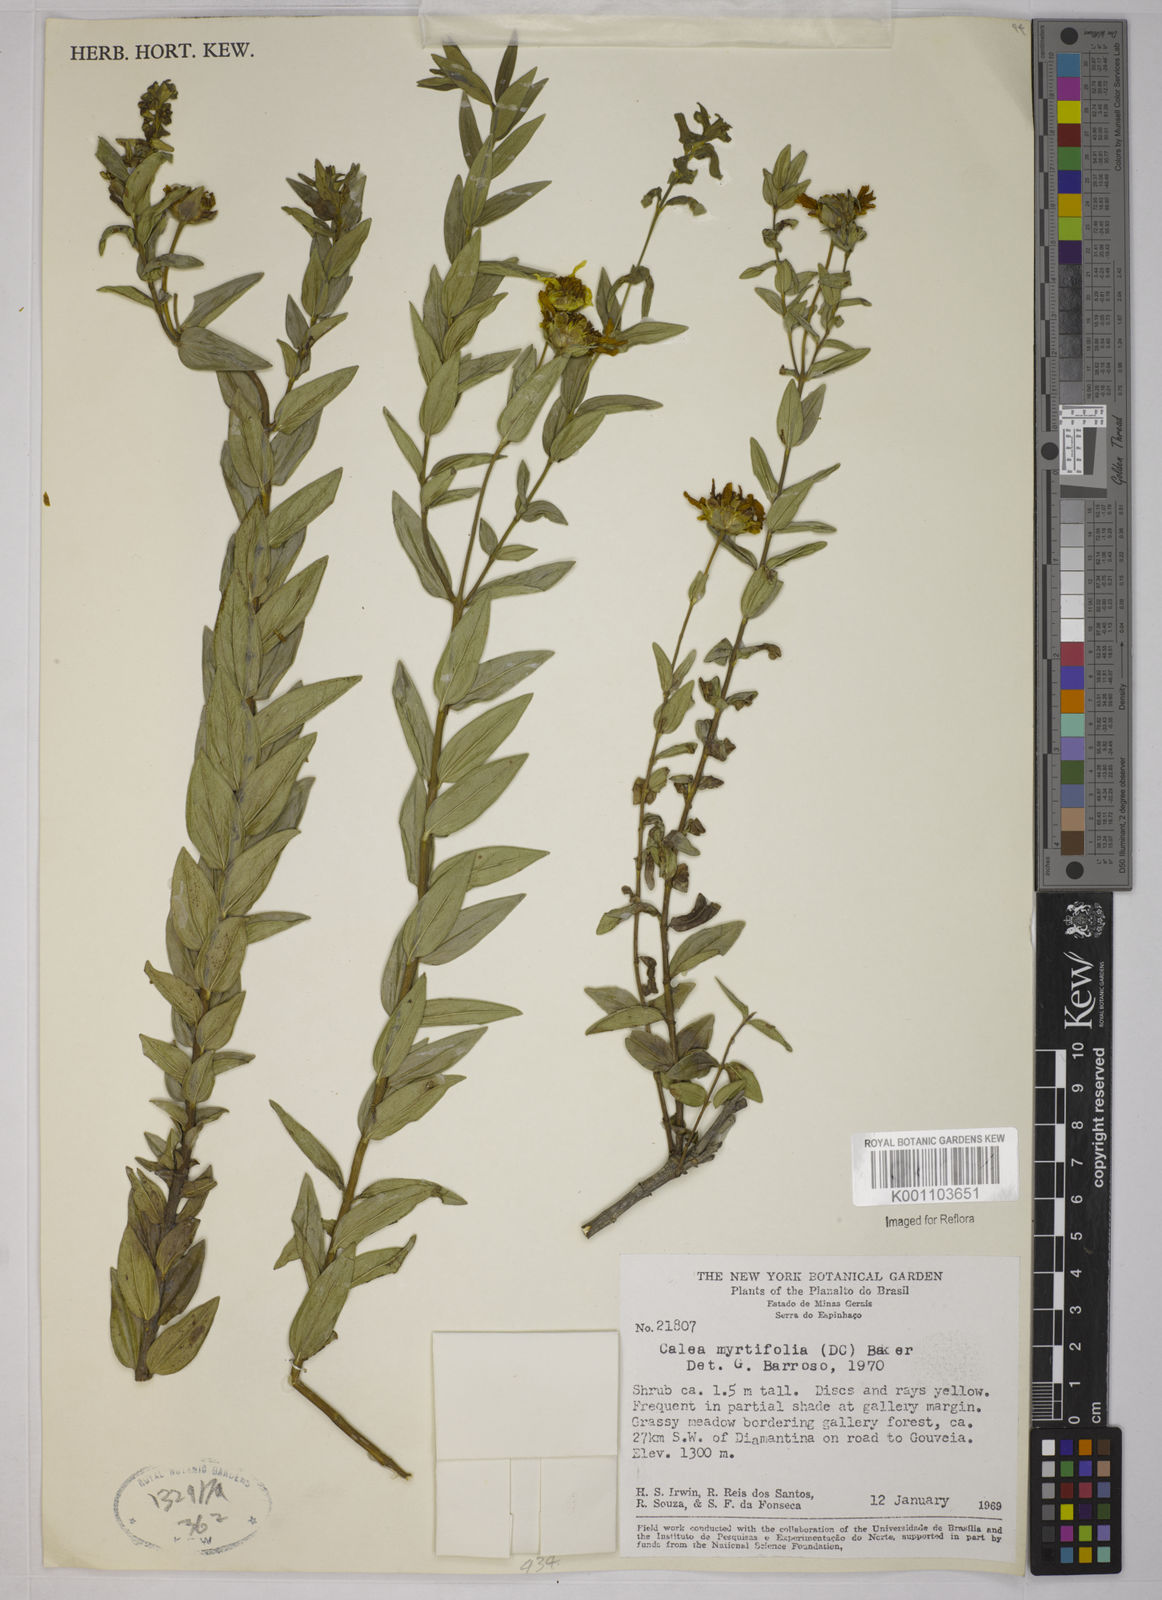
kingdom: Plantae
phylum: Tracheophyta
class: Magnoliopsida
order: Asterales
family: Asteraceae
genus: Calea
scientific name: Calea myrtifolia
